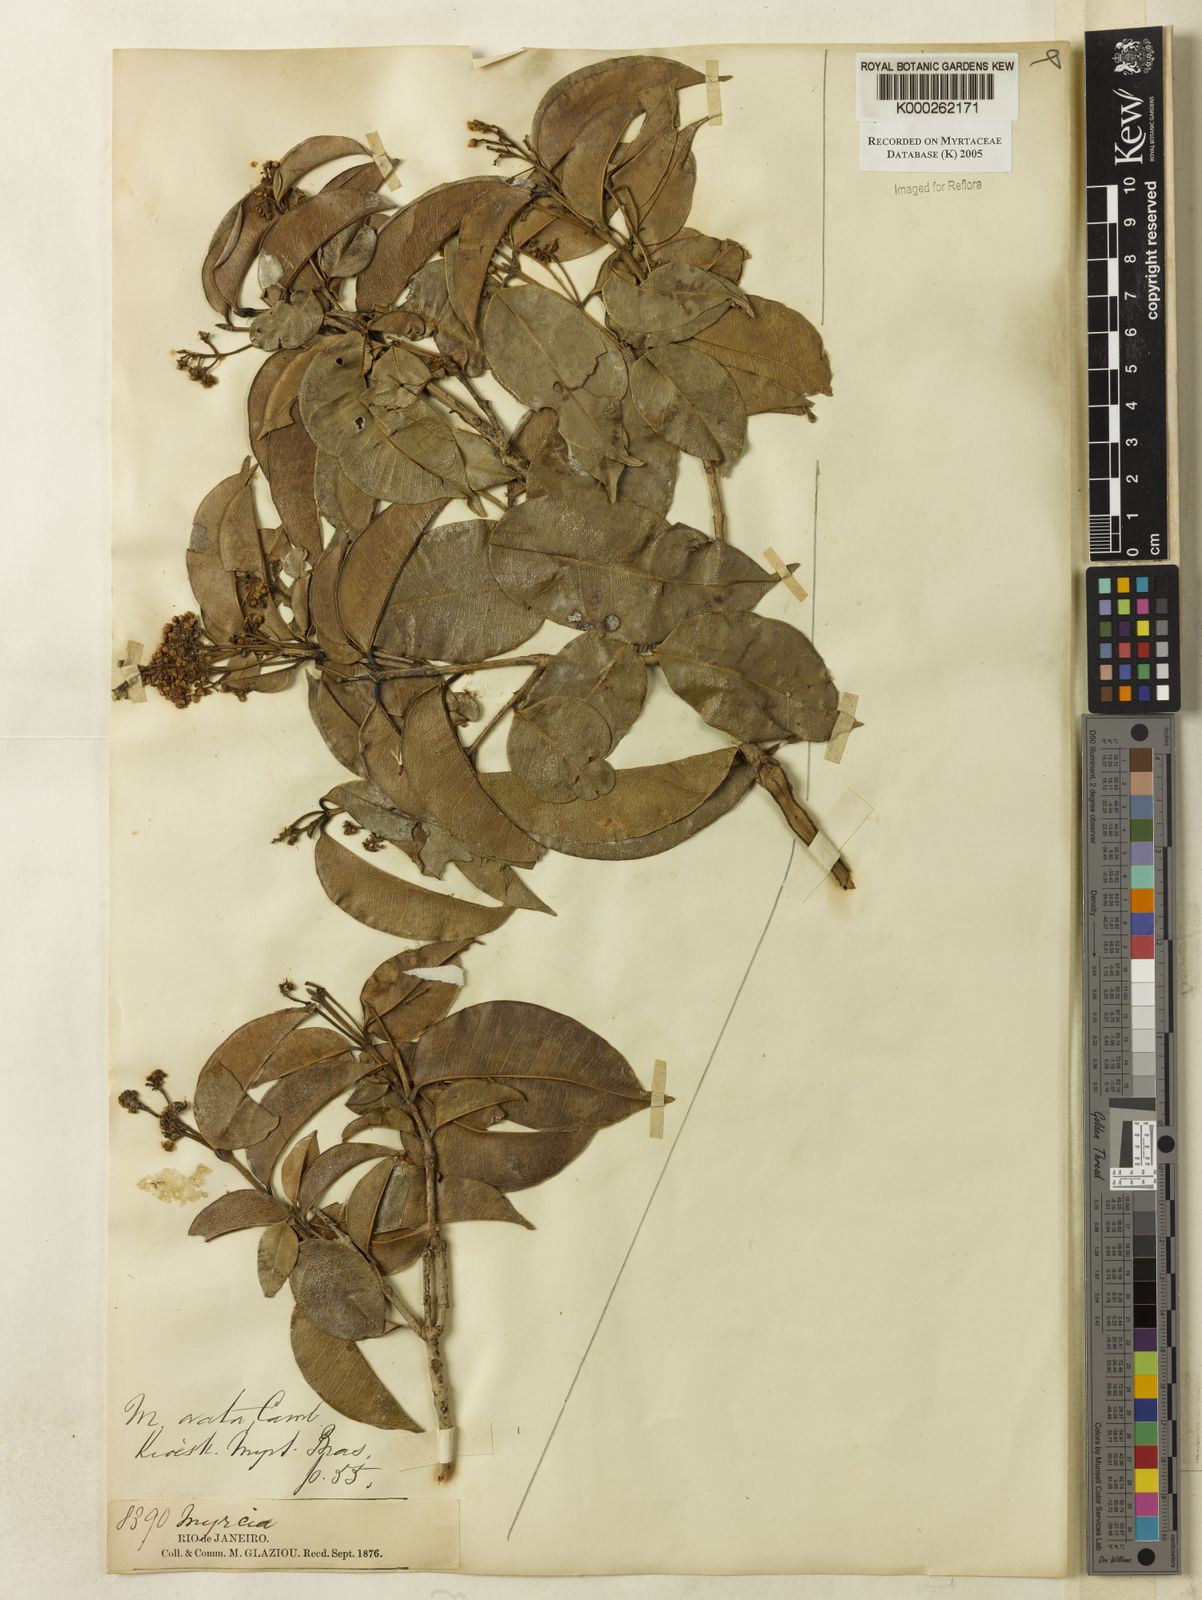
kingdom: Plantae
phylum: Tracheophyta
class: Magnoliopsida
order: Myrtales
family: Myrtaceae
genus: Myrcia
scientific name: Myrcia ovata
